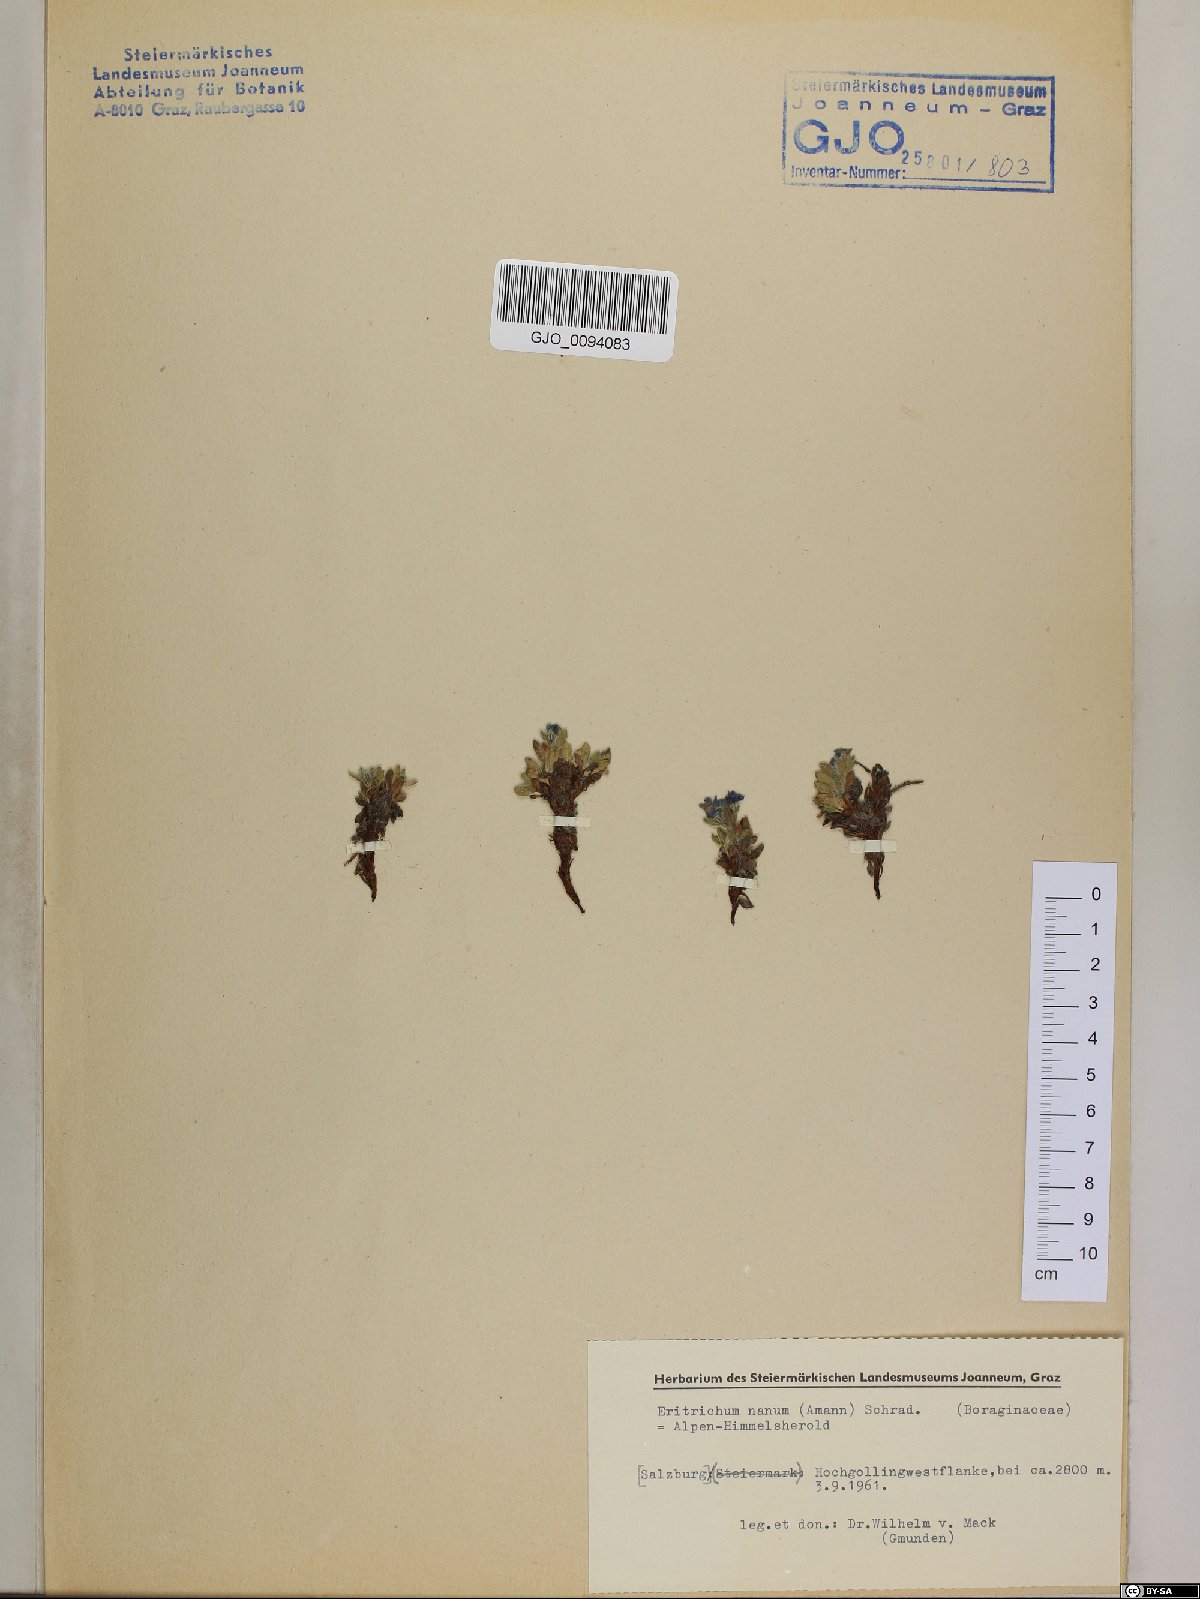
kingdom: Plantae
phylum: Tracheophyta
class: Magnoliopsida
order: Boraginales
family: Boraginaceae
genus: Eritrichium
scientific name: Eritrichium nanum
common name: King-of-the-alps
